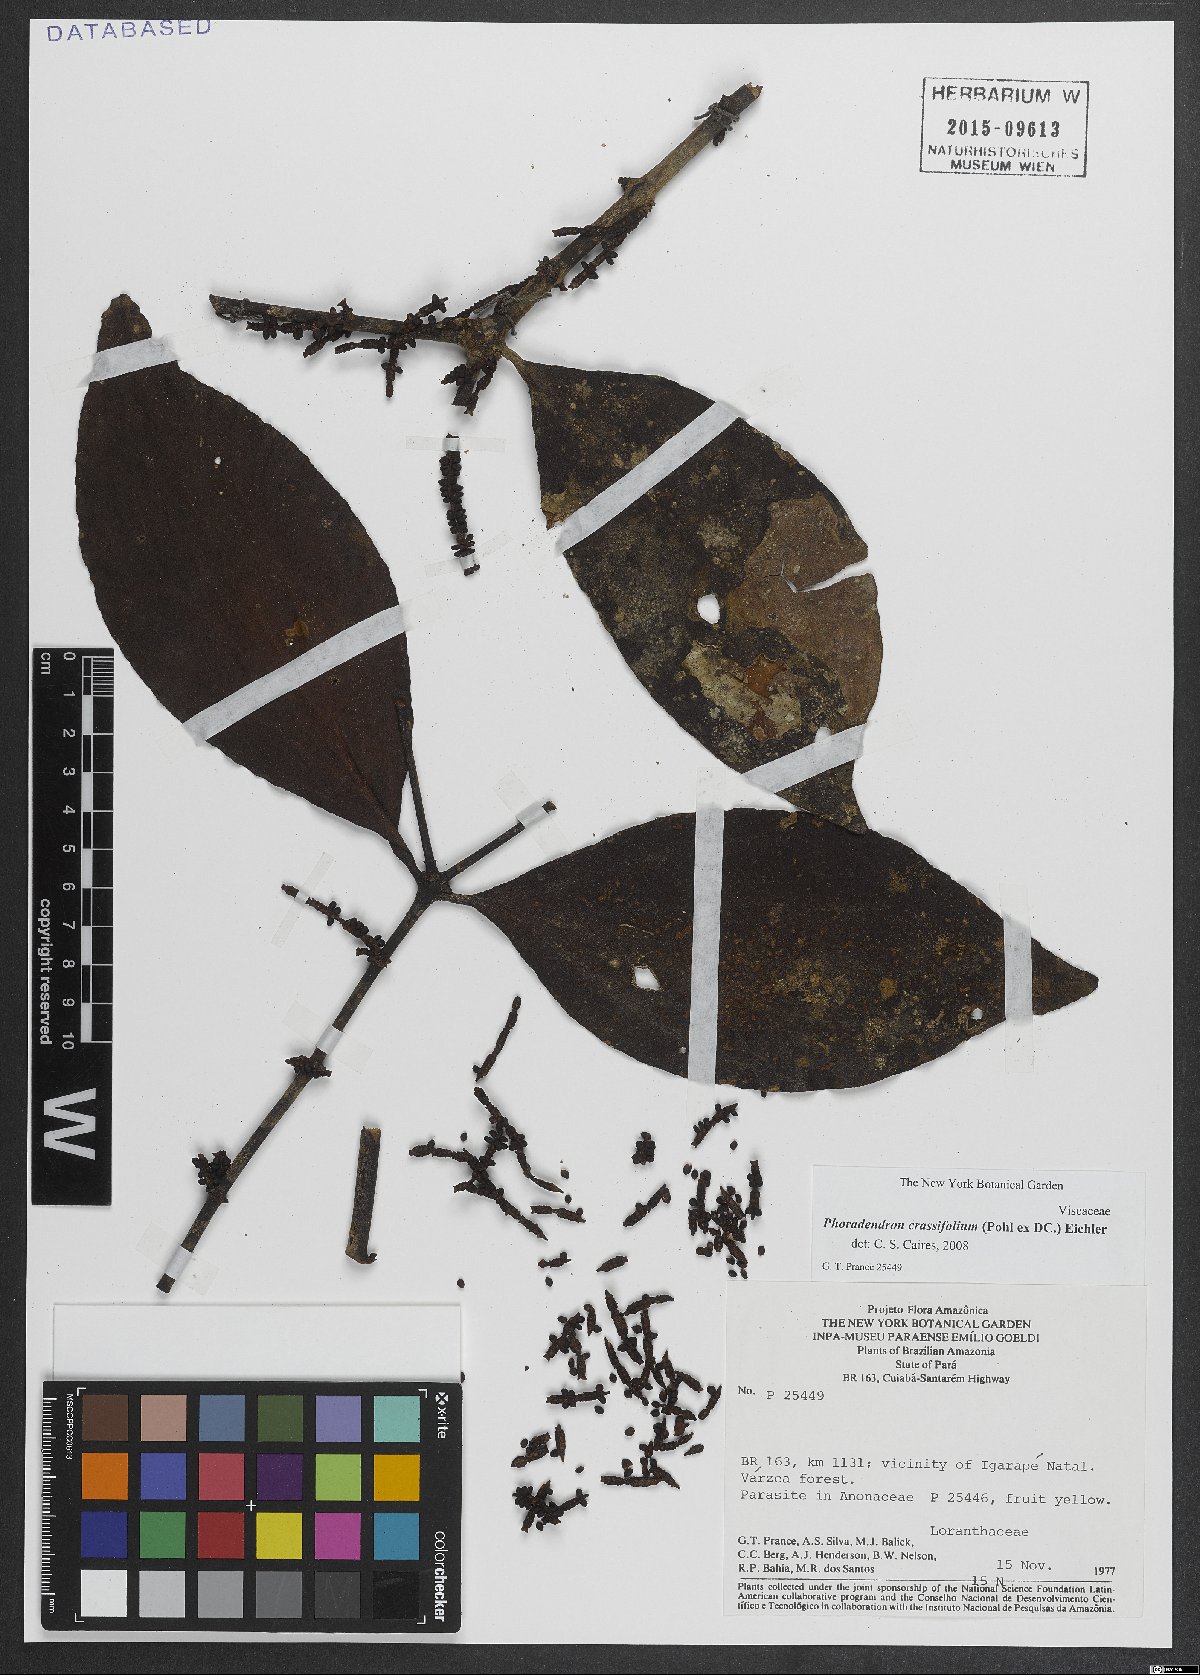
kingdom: Plantae
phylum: Tracheophyta
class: Magnoliopsida
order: Santalales
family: Viscaceae
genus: Phoradendron
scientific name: Phoradendron crassifolium
